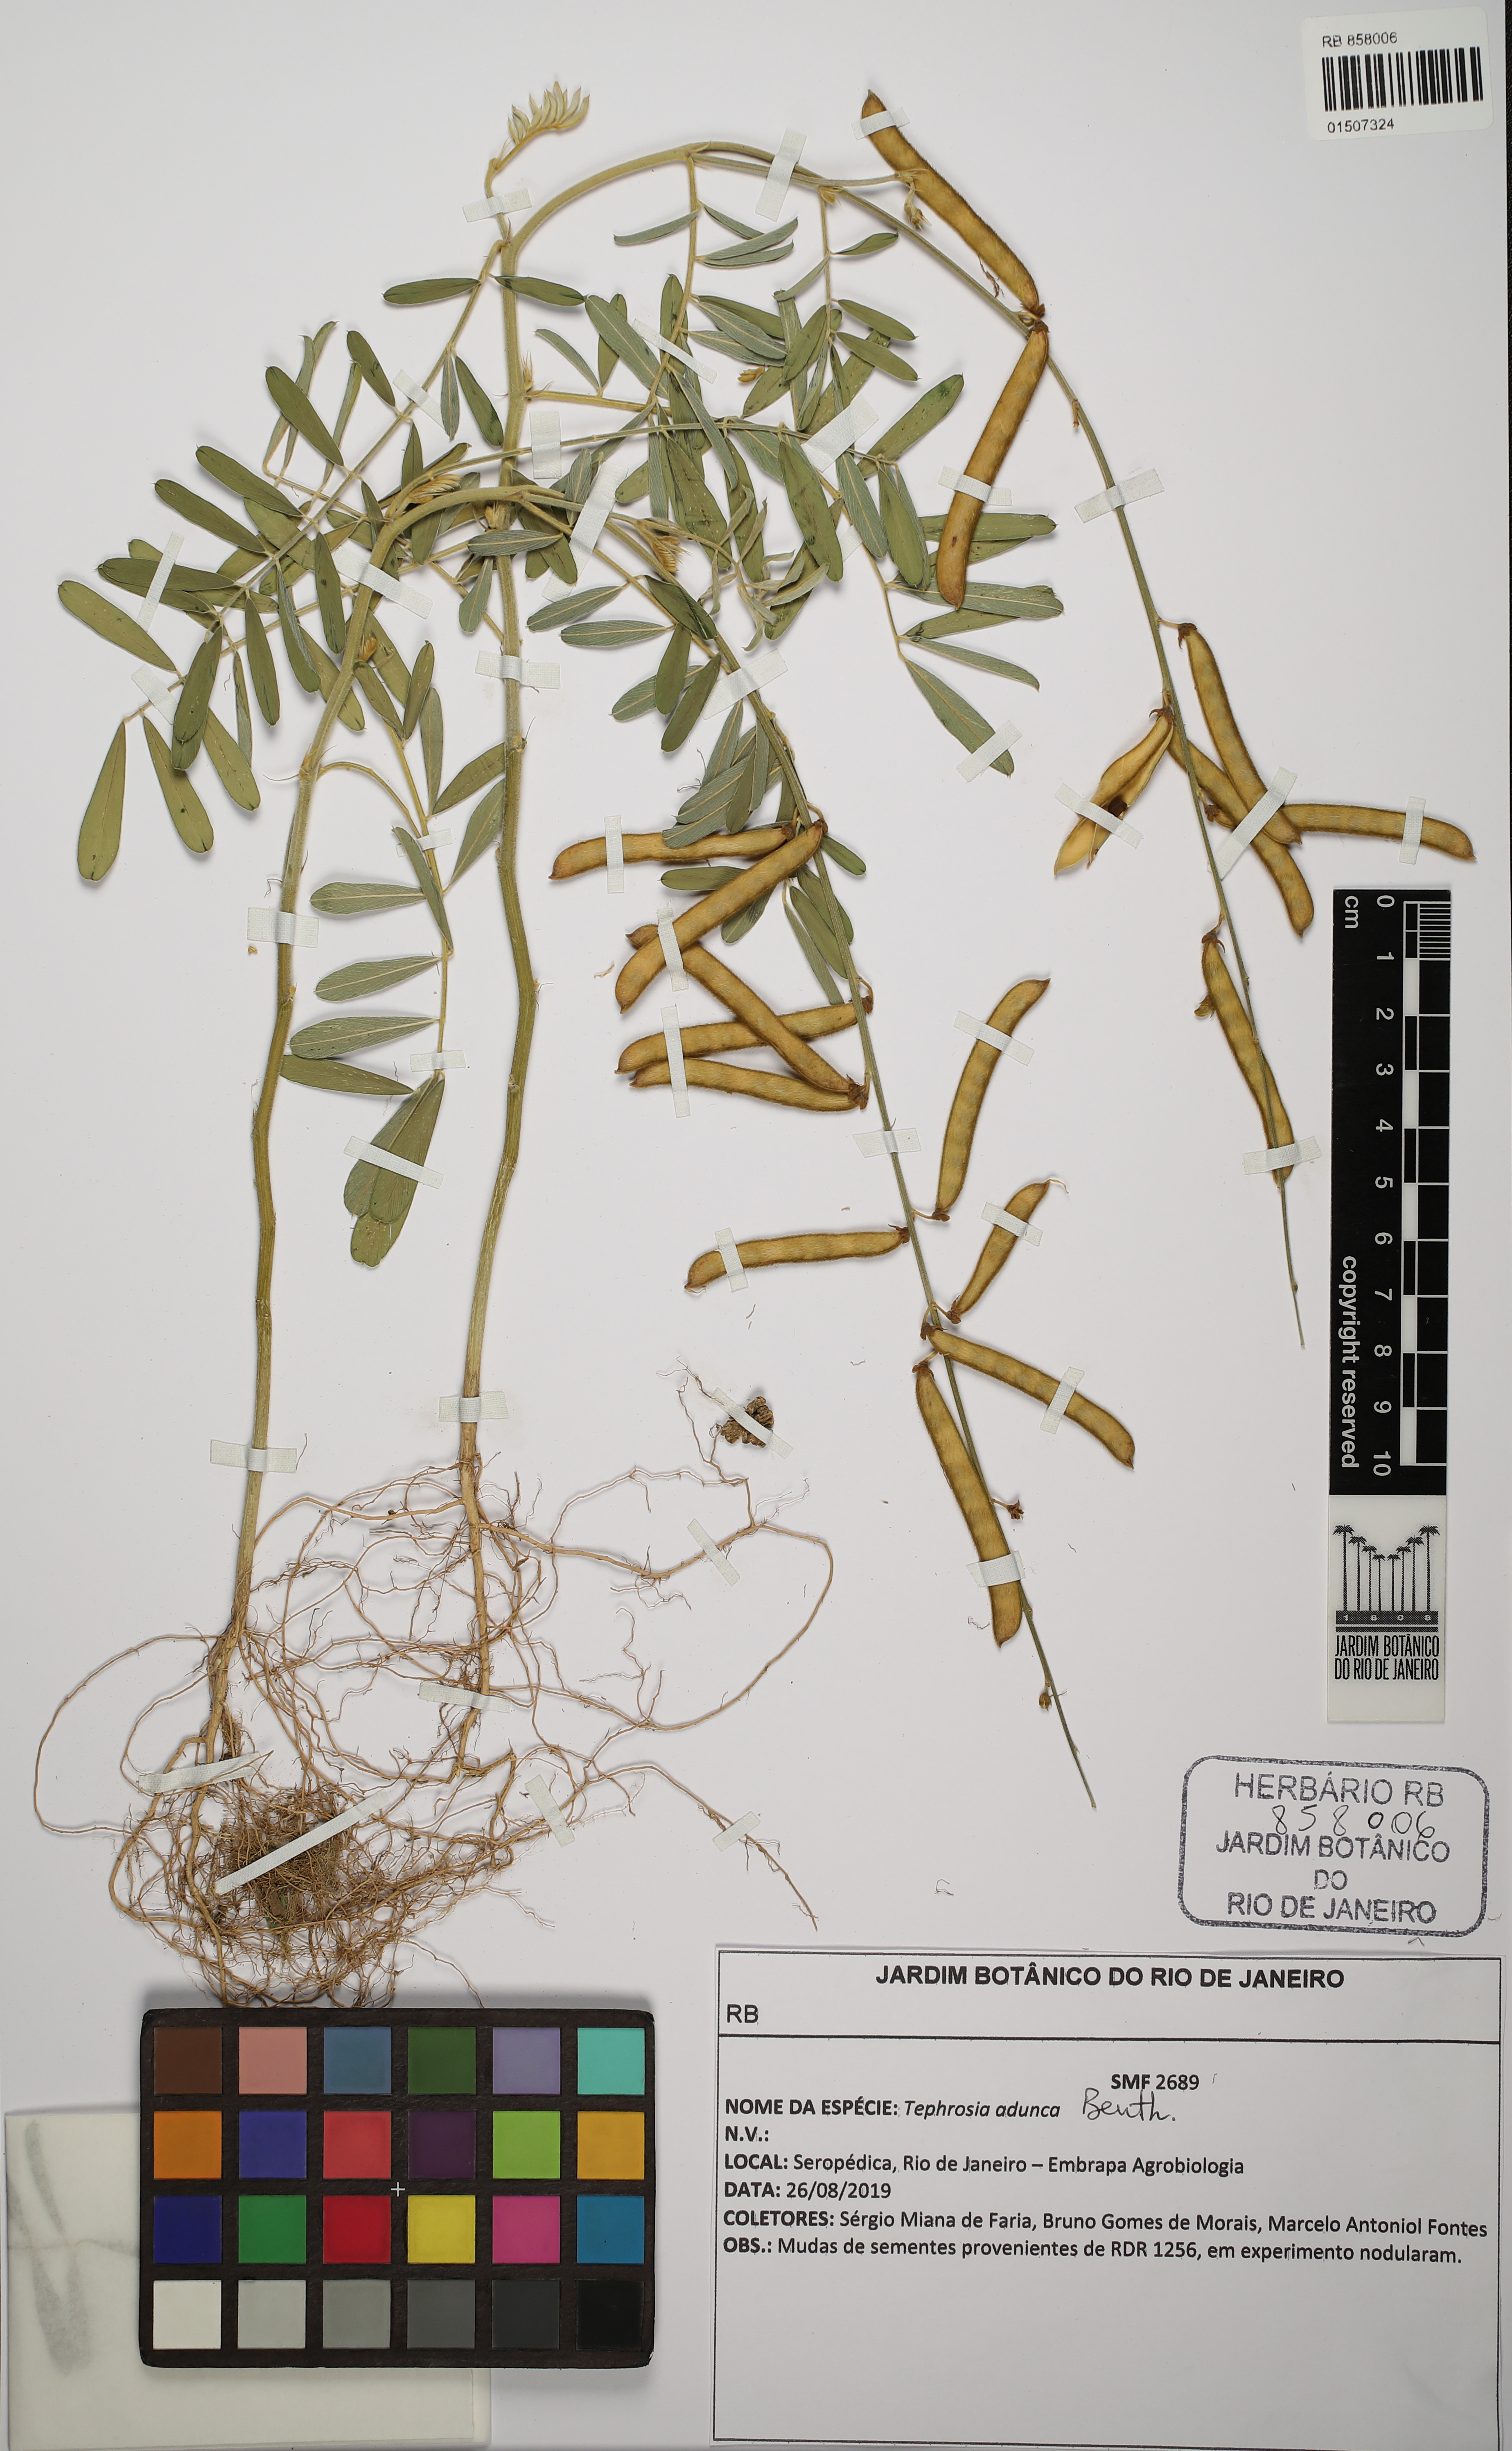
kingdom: Plantae
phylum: Tracheophyta
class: Magnoliopsida
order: Fabales
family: Fabaceae
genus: Tephrosia
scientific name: Tephrosia adunca
